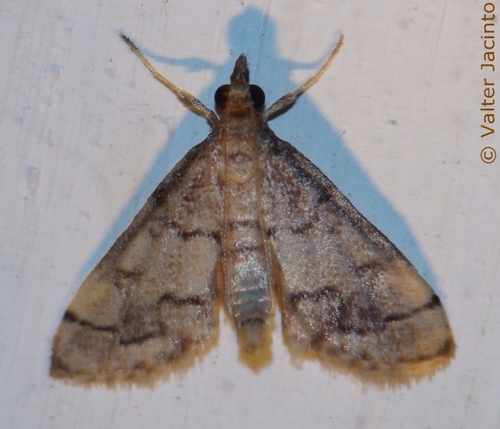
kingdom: Animalia
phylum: Arthropoda
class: Insecta
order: Lepidoptera
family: Crambidae
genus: Metasia
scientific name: Metasia cuencalis
